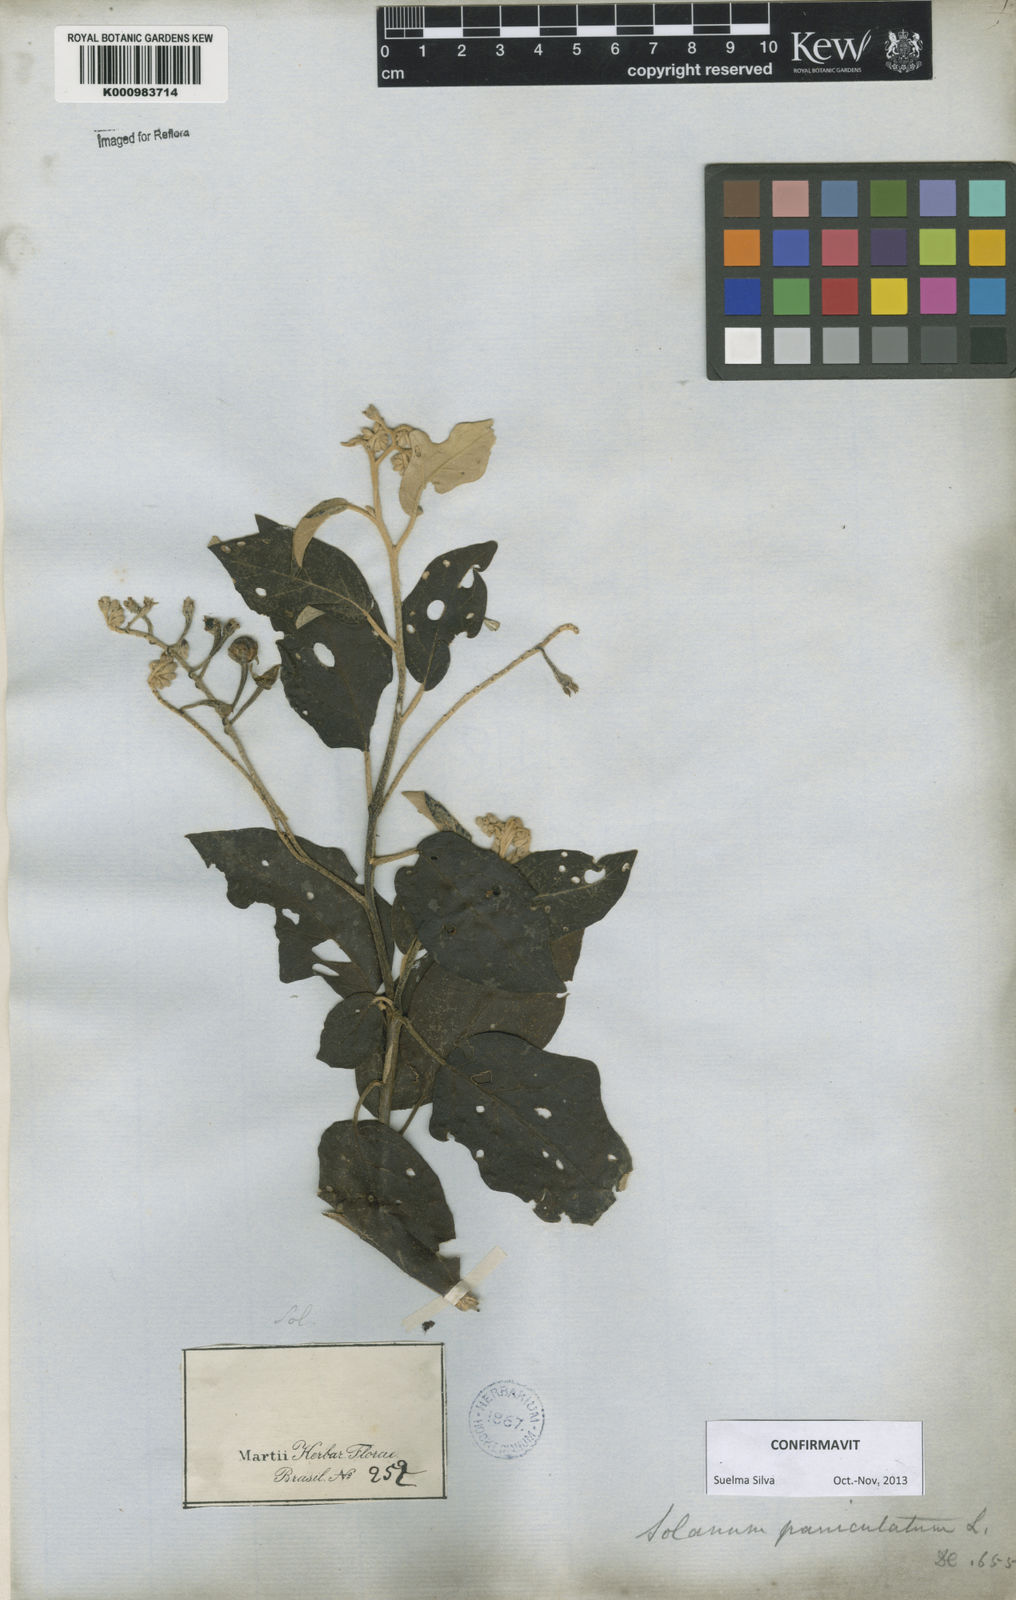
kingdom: Plantae
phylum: Tracheophyta
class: Magnoliopsida
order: Solanales
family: Solanaceae
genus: Solanum
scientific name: Solanum paniculatum
